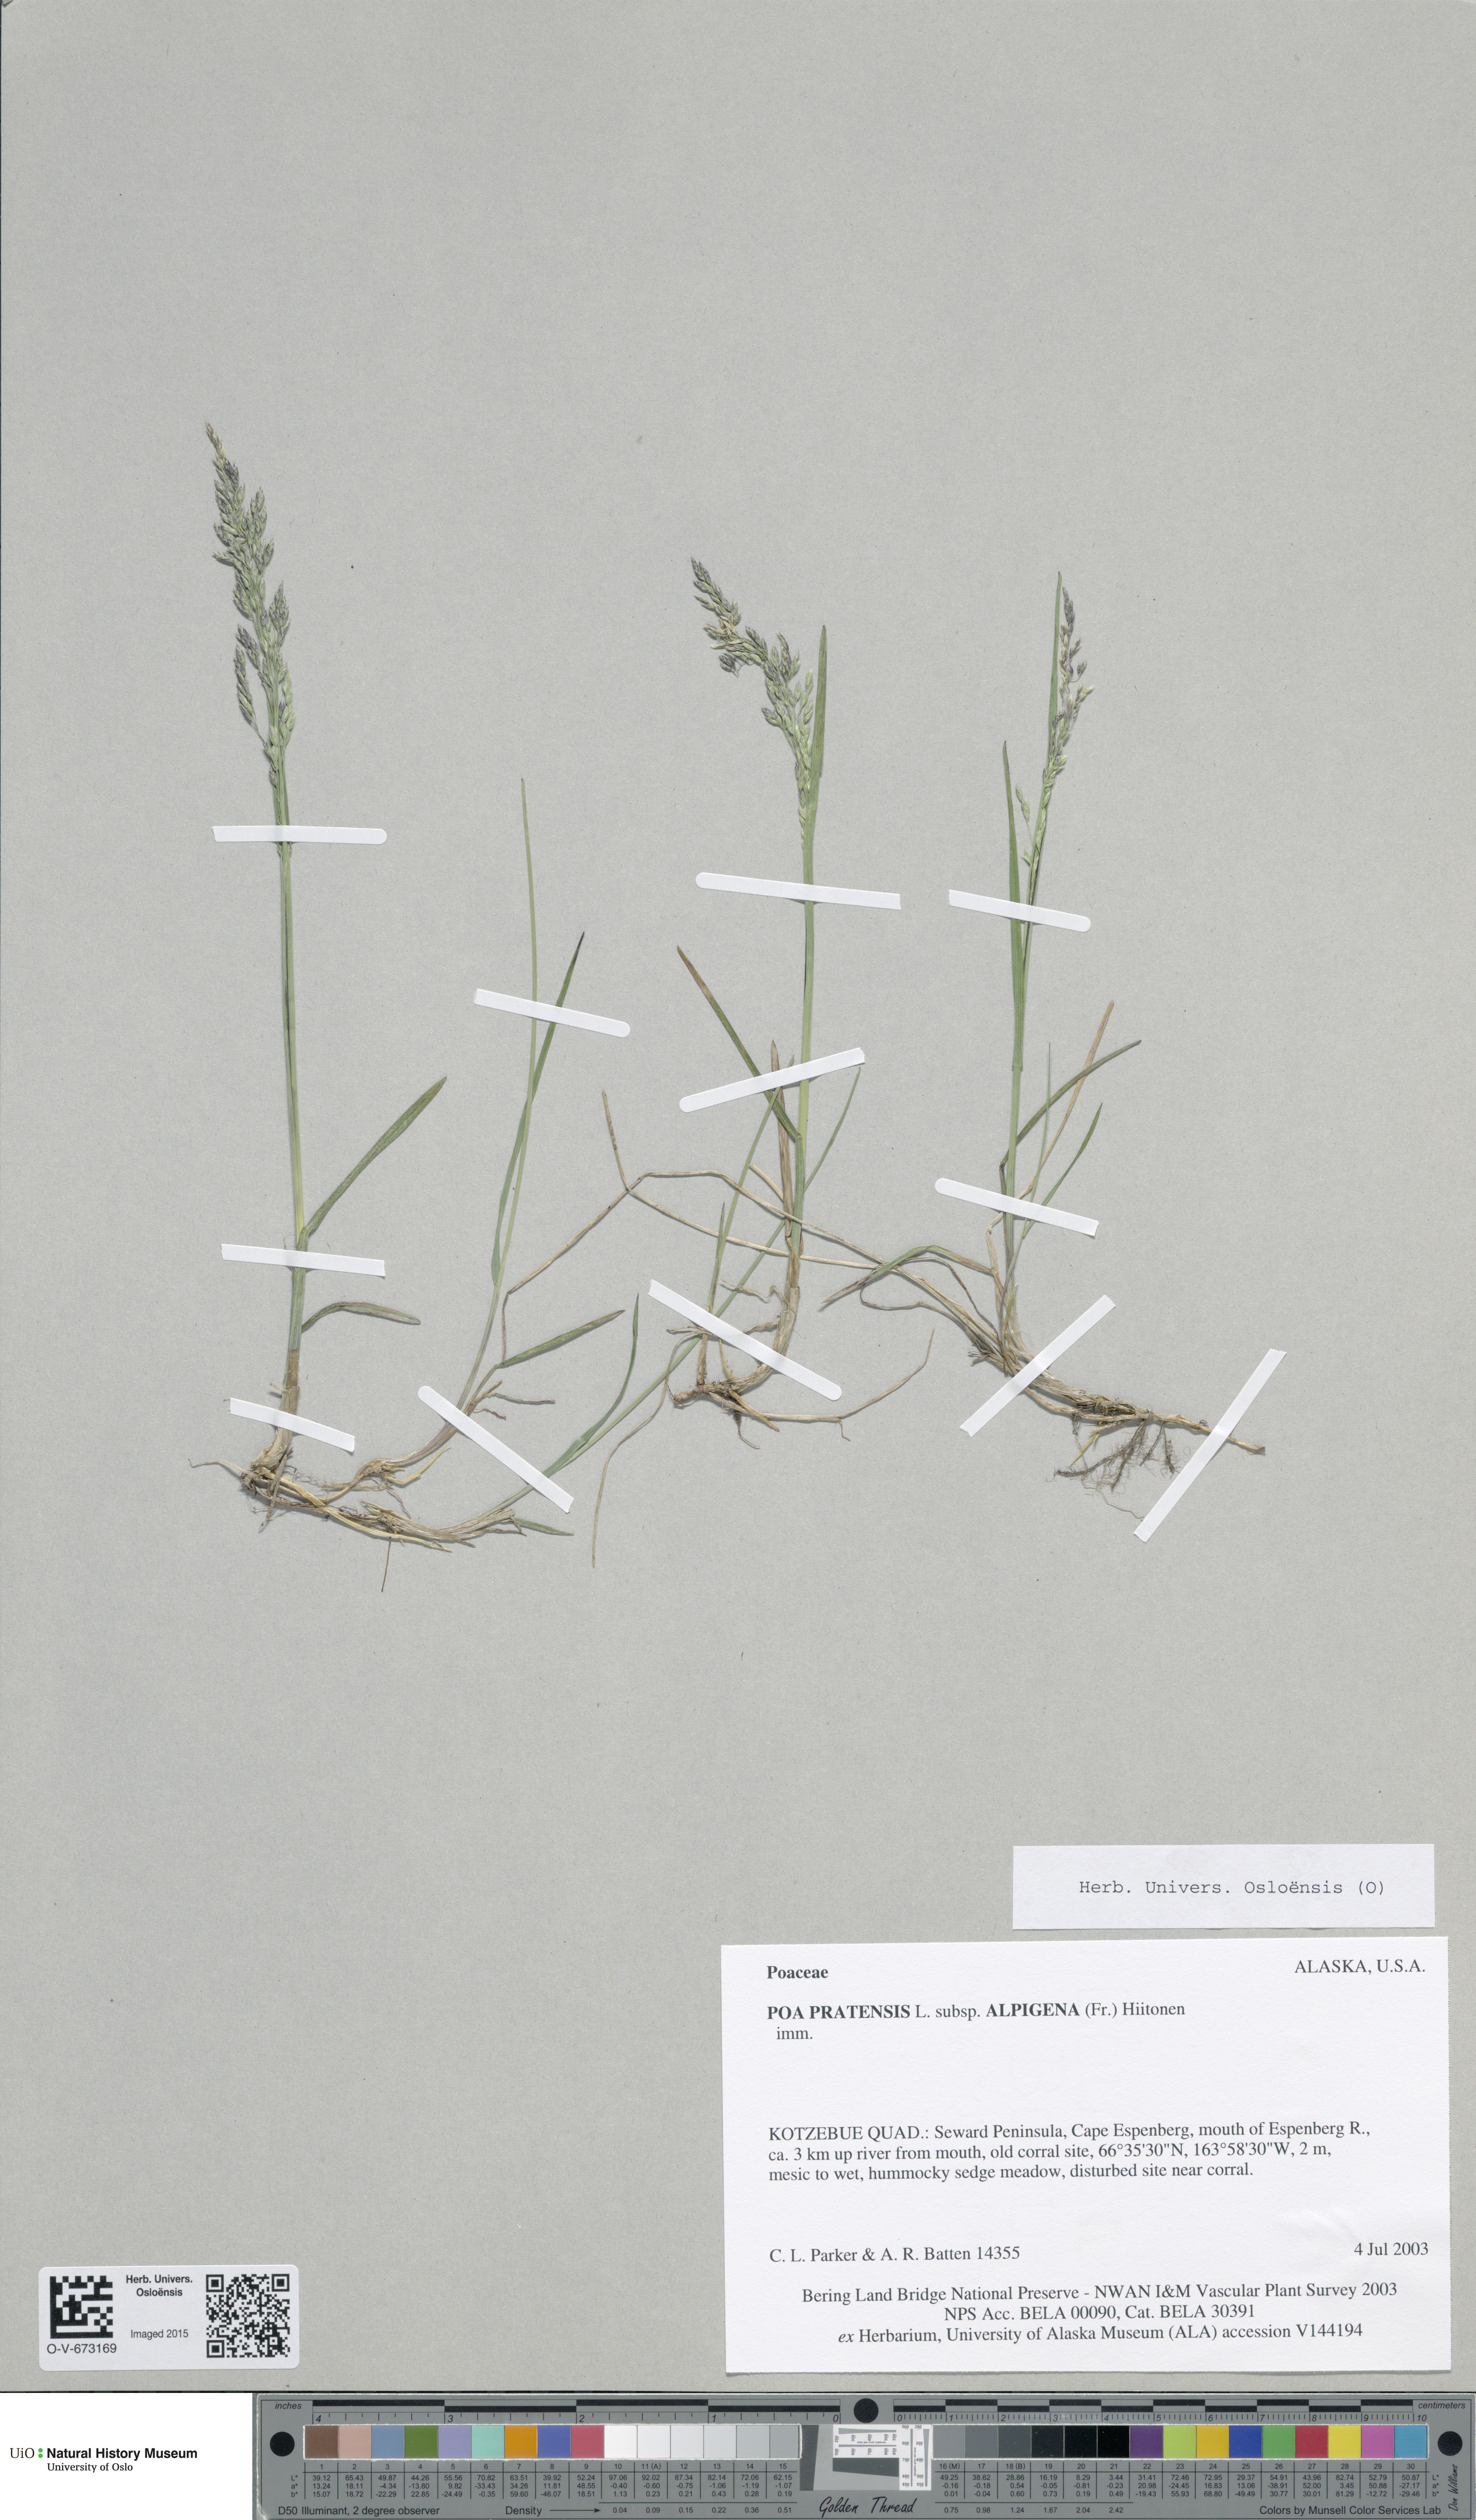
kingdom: Plantae
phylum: Tracheophyta
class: Liliopsida
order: Poales
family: Poaceae
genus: Poa
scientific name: Poa alpigena
